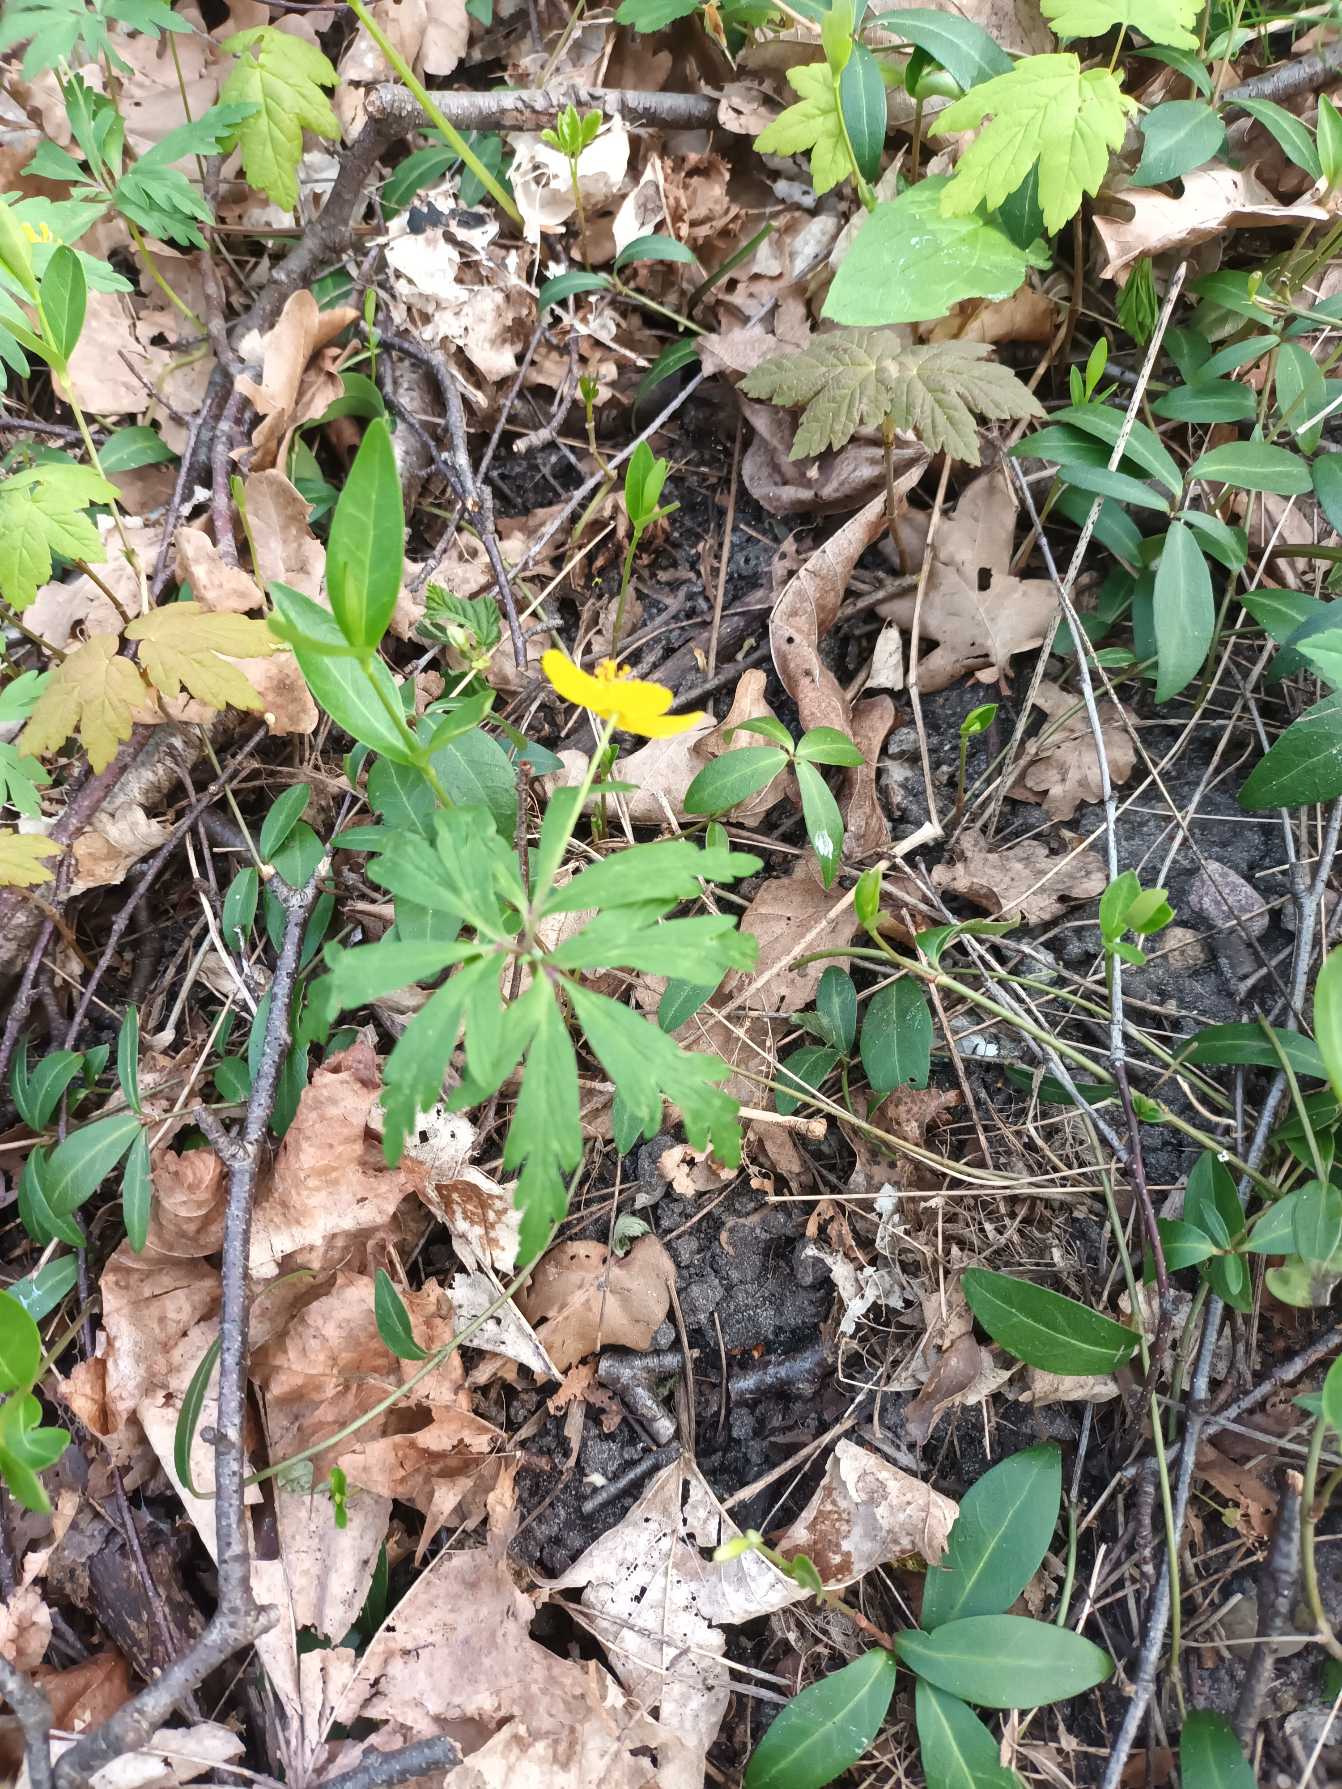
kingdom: Plantae
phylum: Tracheophyta
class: Magnoliopsida
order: Ranunculales
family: Ranunculaceae
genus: Anemone
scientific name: Anemone ranunculoides
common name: Gul anemone
